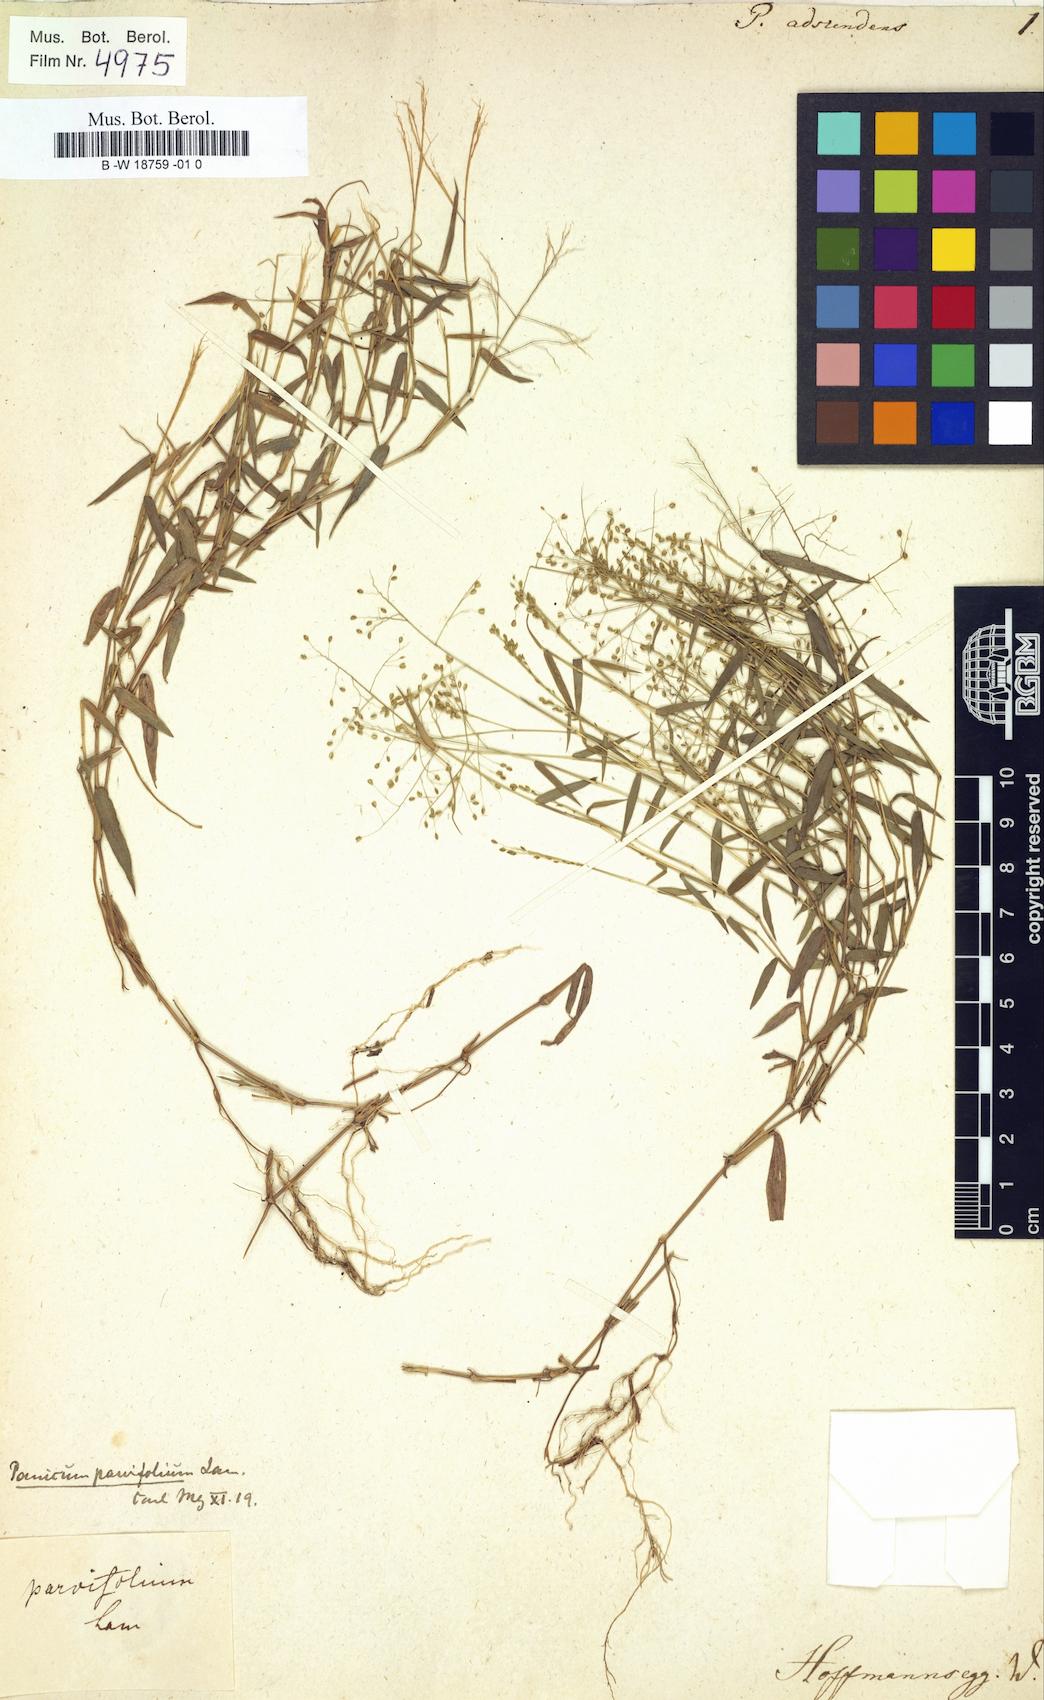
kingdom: Plantae
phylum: Tracheophyta
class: Liliopsida
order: Poales
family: Poaceae
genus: Panicum
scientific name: Panicum adscendens
